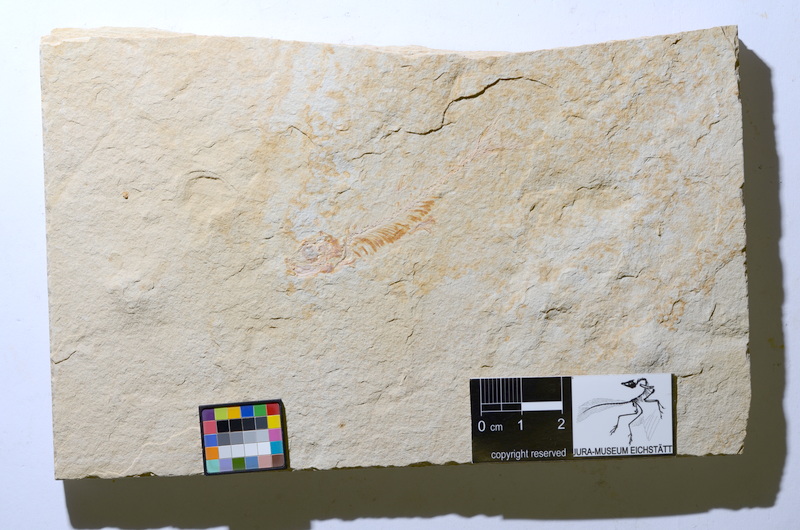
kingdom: Animalia
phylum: Chordata
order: Salmoniformes
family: Orthogonikleithridae
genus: Leptolepides
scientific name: Leptolepides
